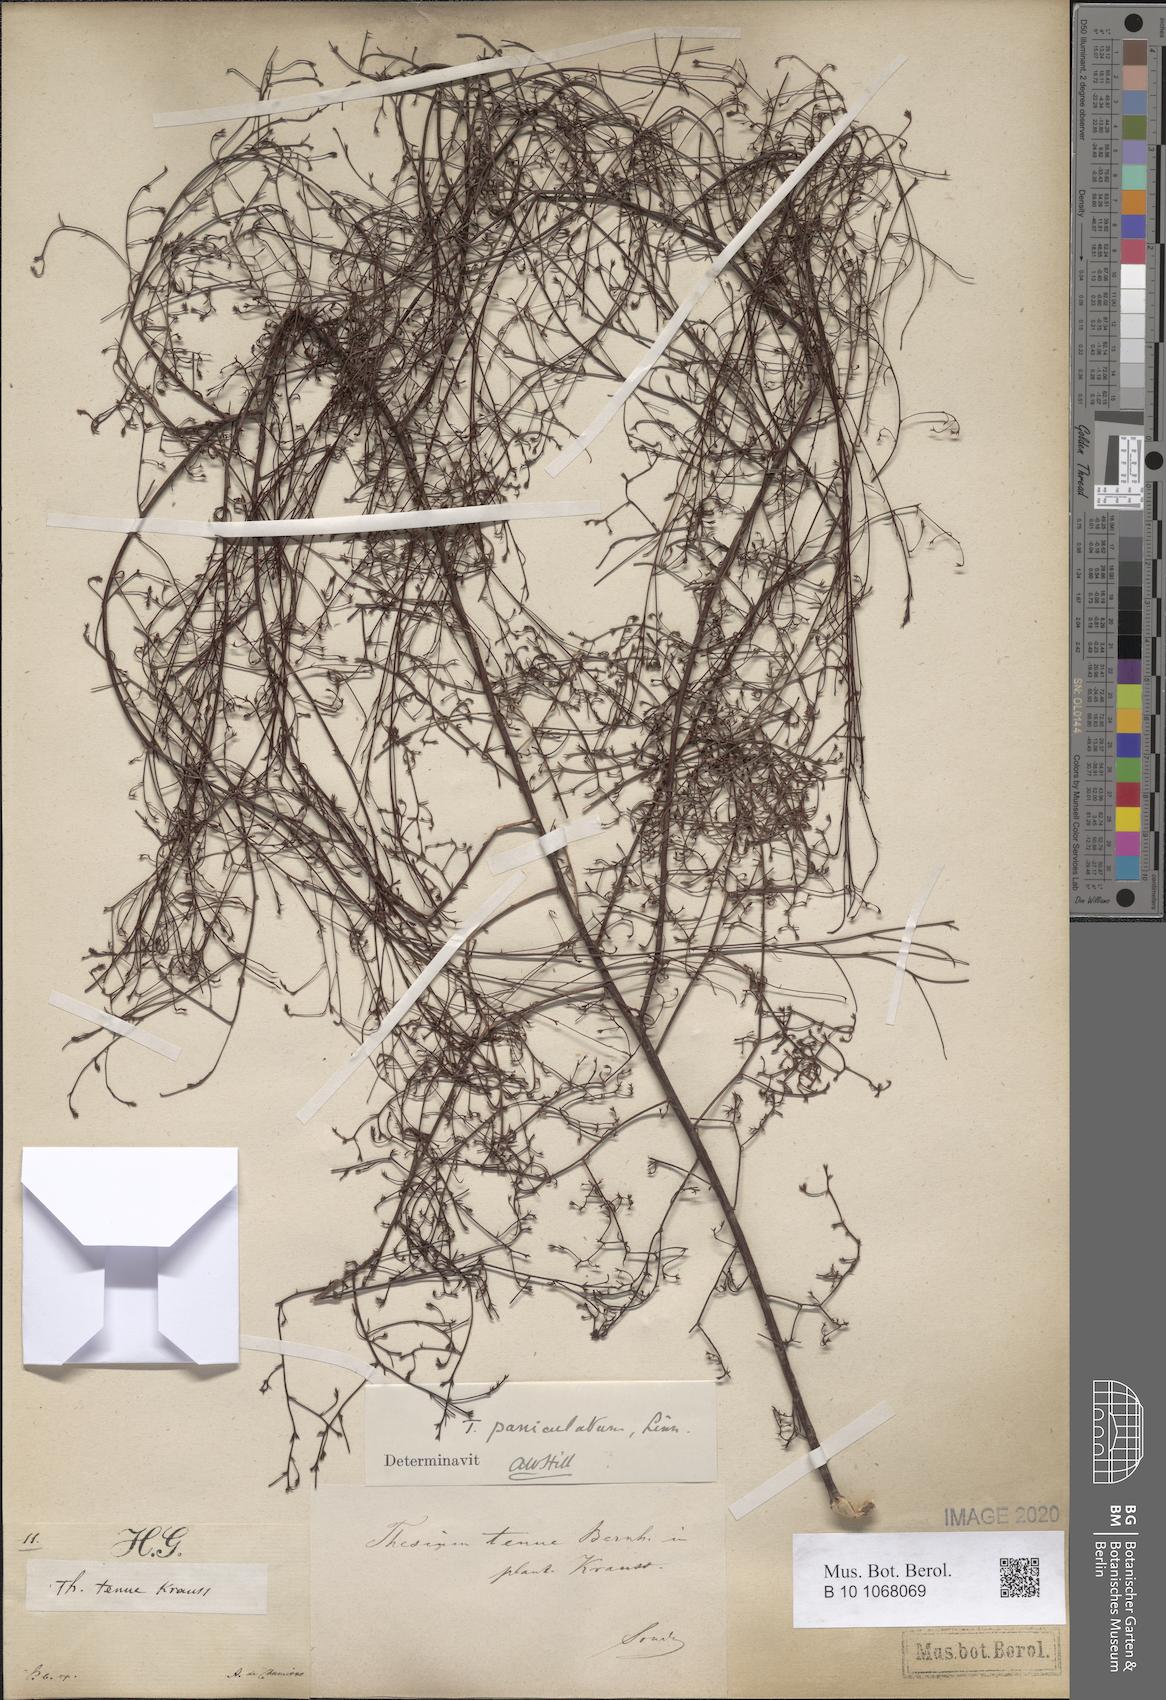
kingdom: Plantae
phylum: Tracheophyta
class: Magnoliopsida
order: Santalales
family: Thesiaceae
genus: Thesium
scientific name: Thesium paniculatum
